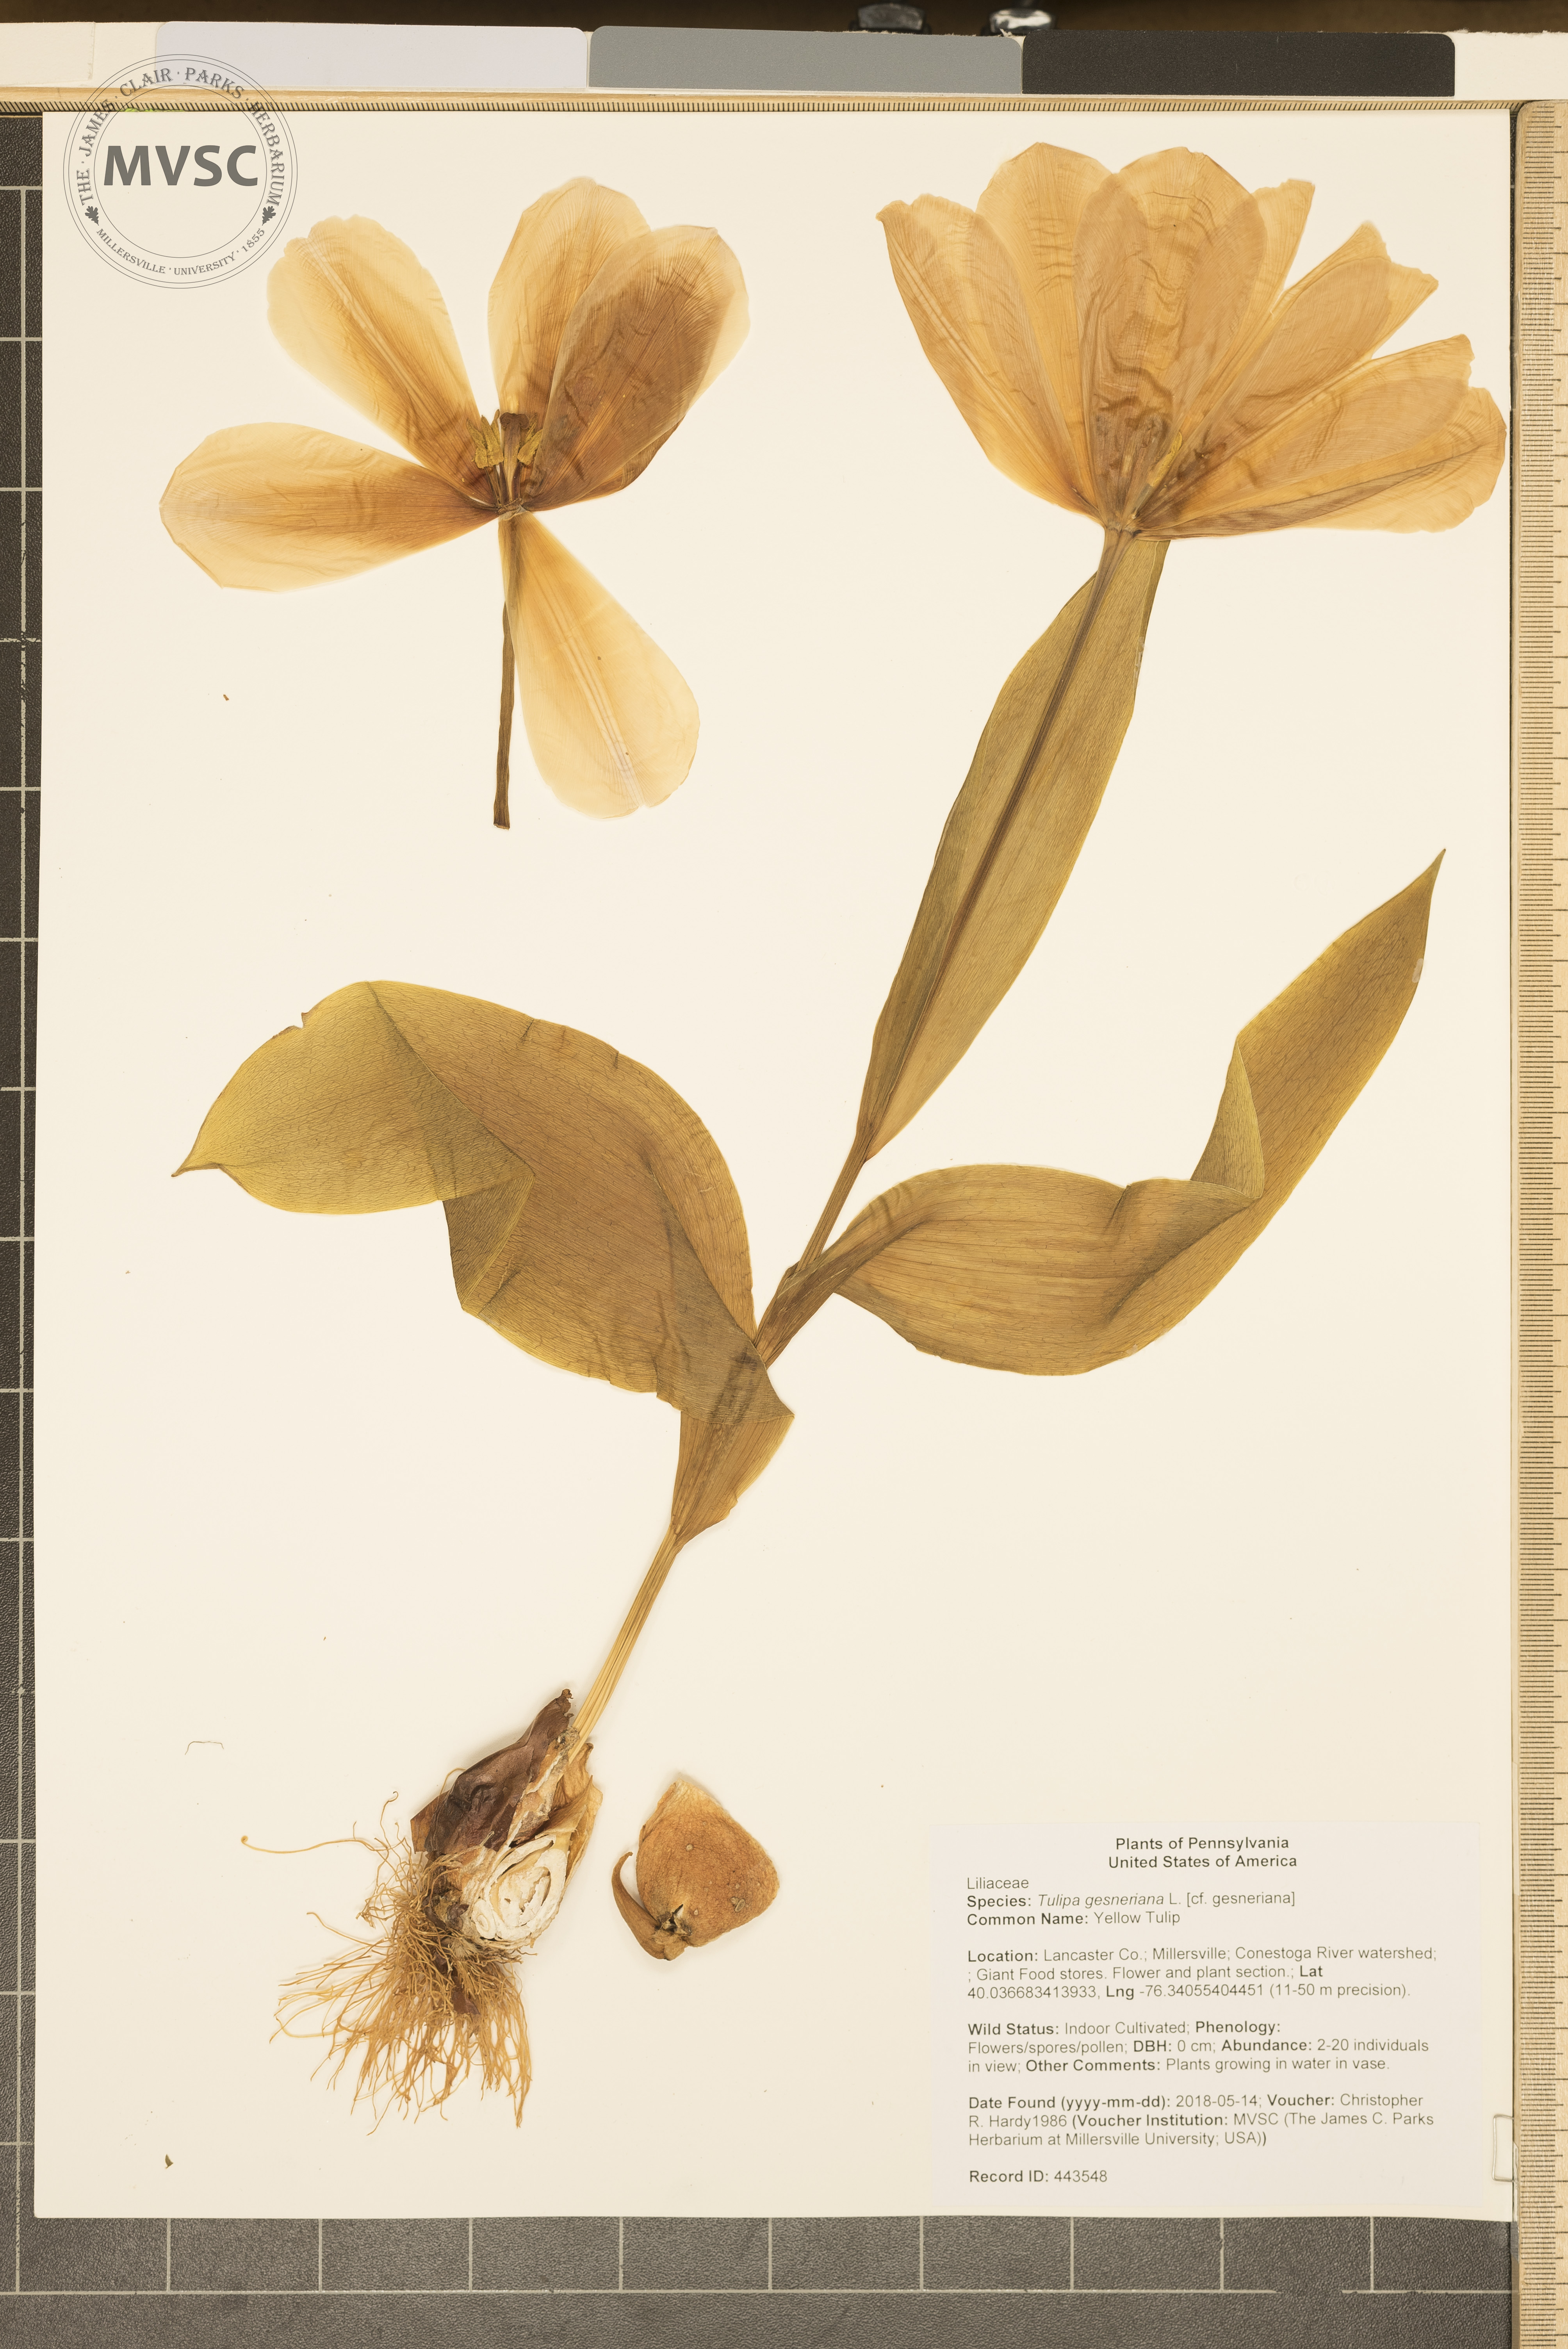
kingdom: Plantae
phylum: Tracheophyta
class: Liliopsida
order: Liliales
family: Liliaceae
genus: Tulipa
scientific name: Tulipa gesneriana
